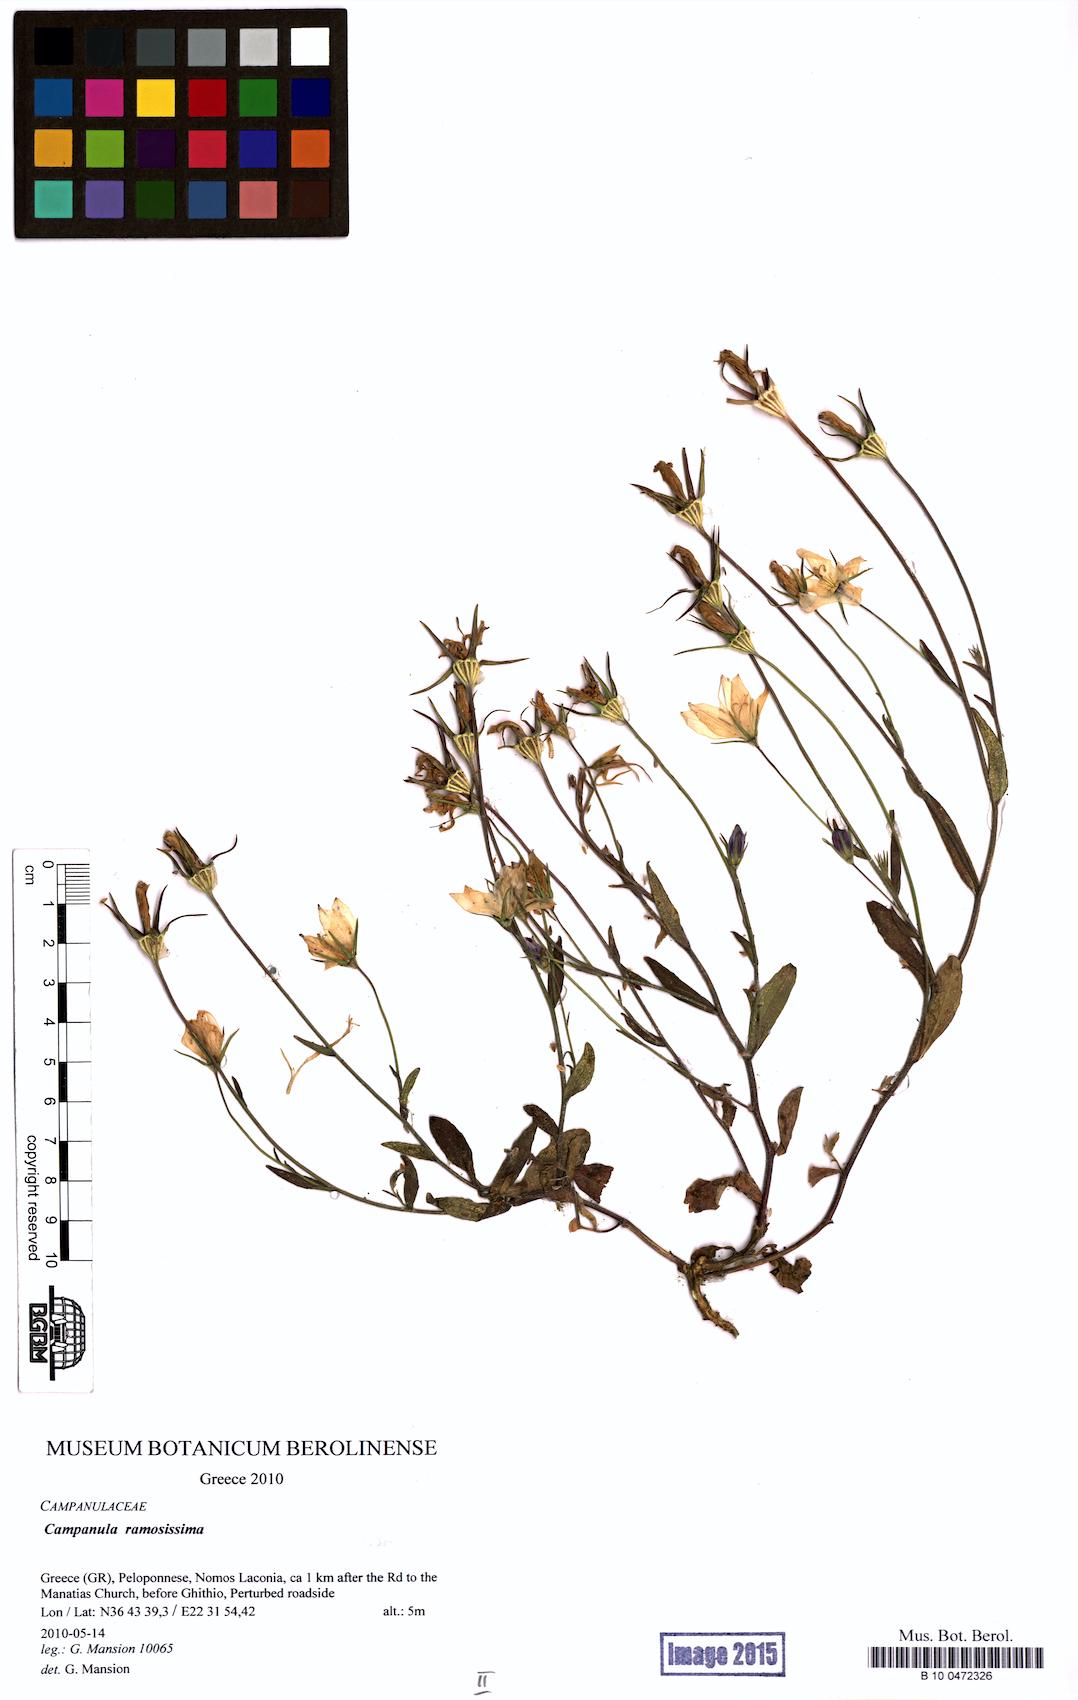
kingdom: Plantae
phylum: Tracheophyta
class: Magnoliopsida
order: Asterales
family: Campanulaceae
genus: Campanula
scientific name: Campanula ramosissima
